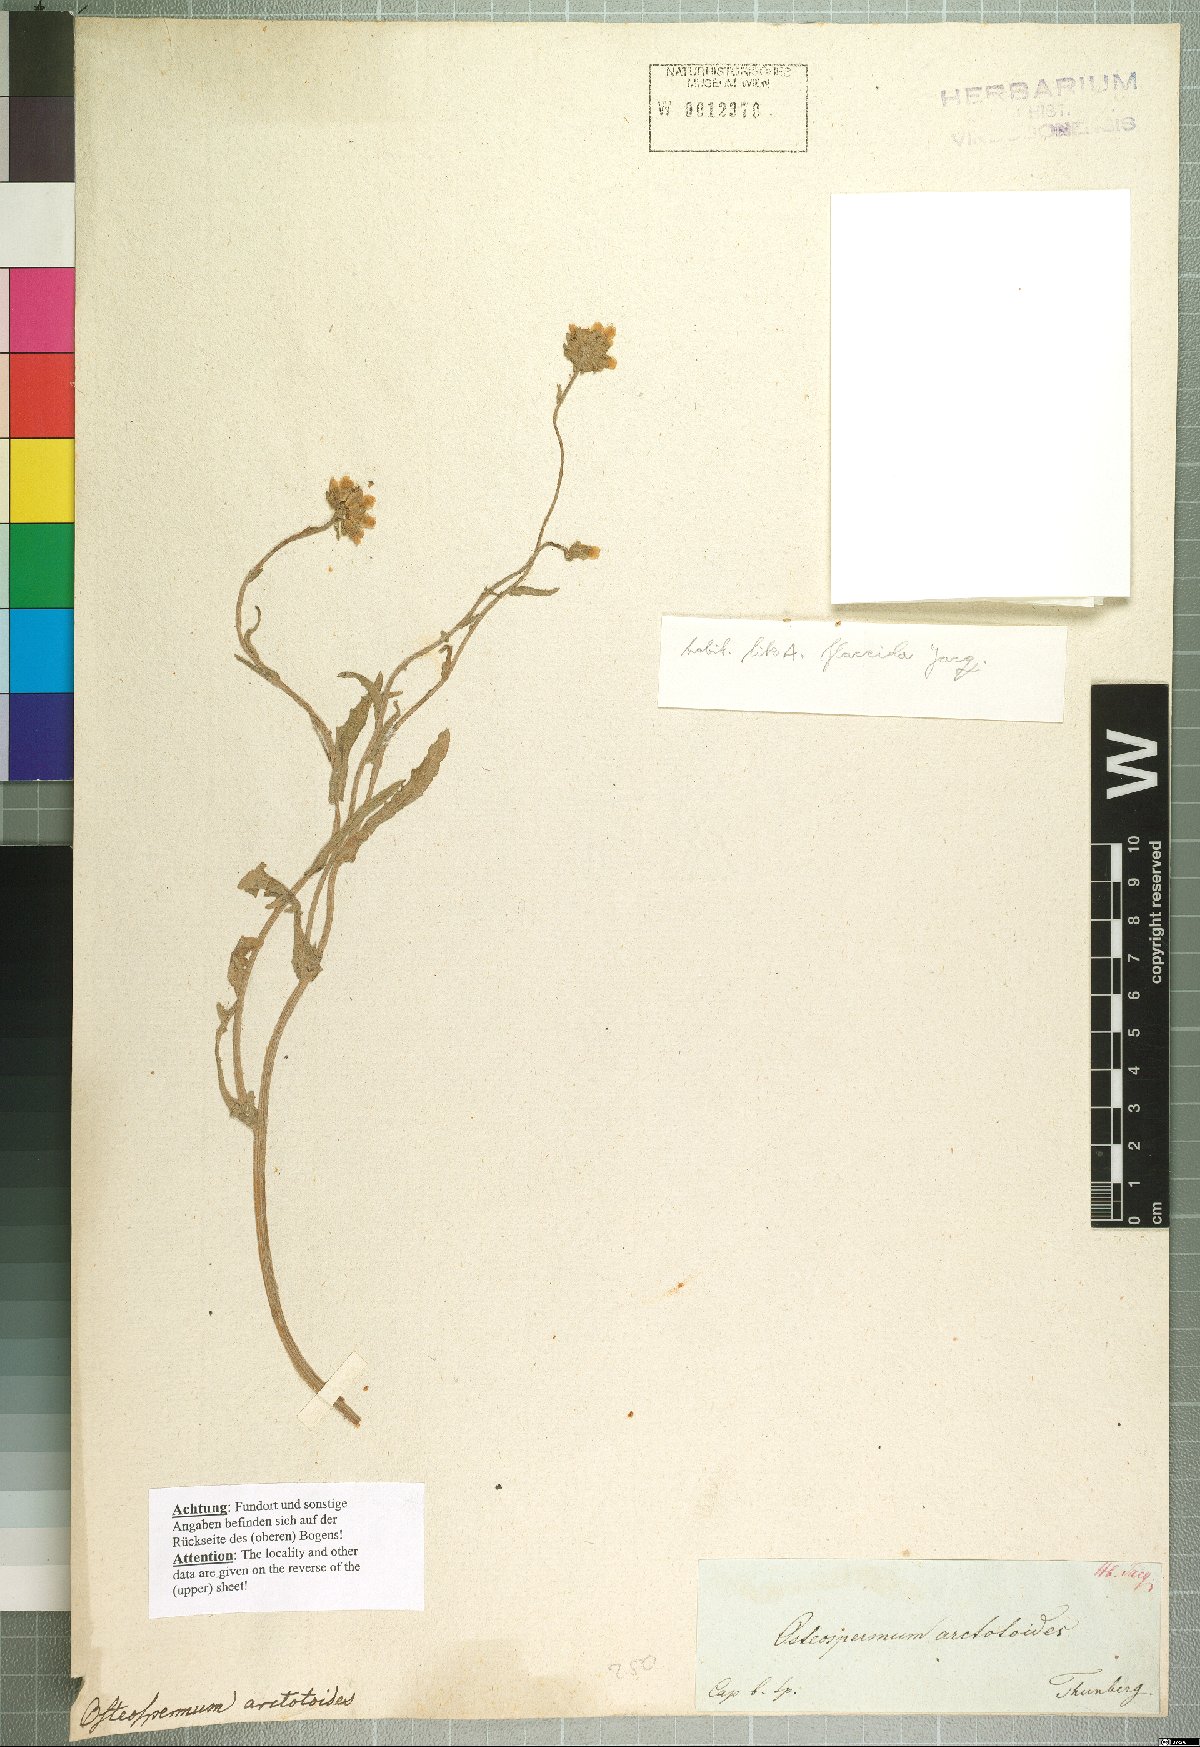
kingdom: Plantae
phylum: Tracheophyta
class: Magnoliopsida
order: Asterales
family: Asteraceae
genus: Arctotis
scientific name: Arctotis arctotoides
